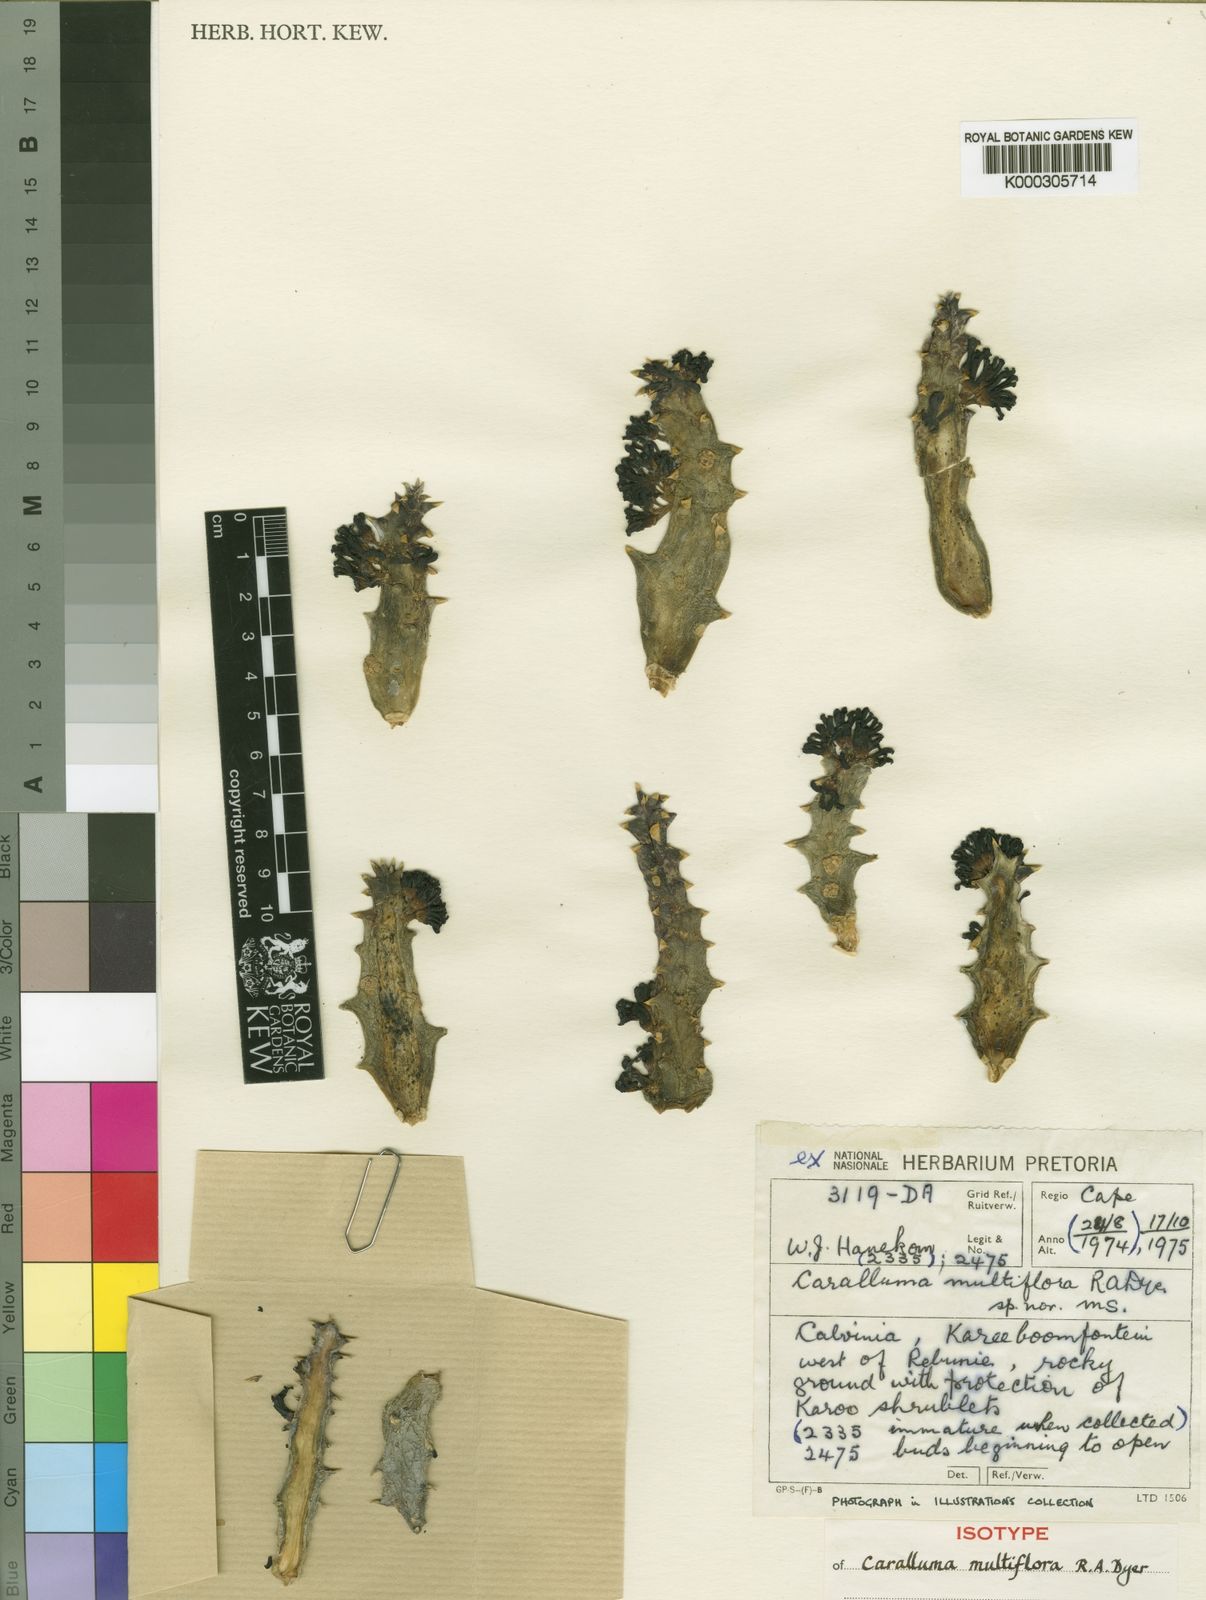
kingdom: Plantae
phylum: Tracheophyta
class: Magnoliopsida
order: Gentianales
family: Apocynaceae
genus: Ceropegia
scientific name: Ceropegia multioriflora
